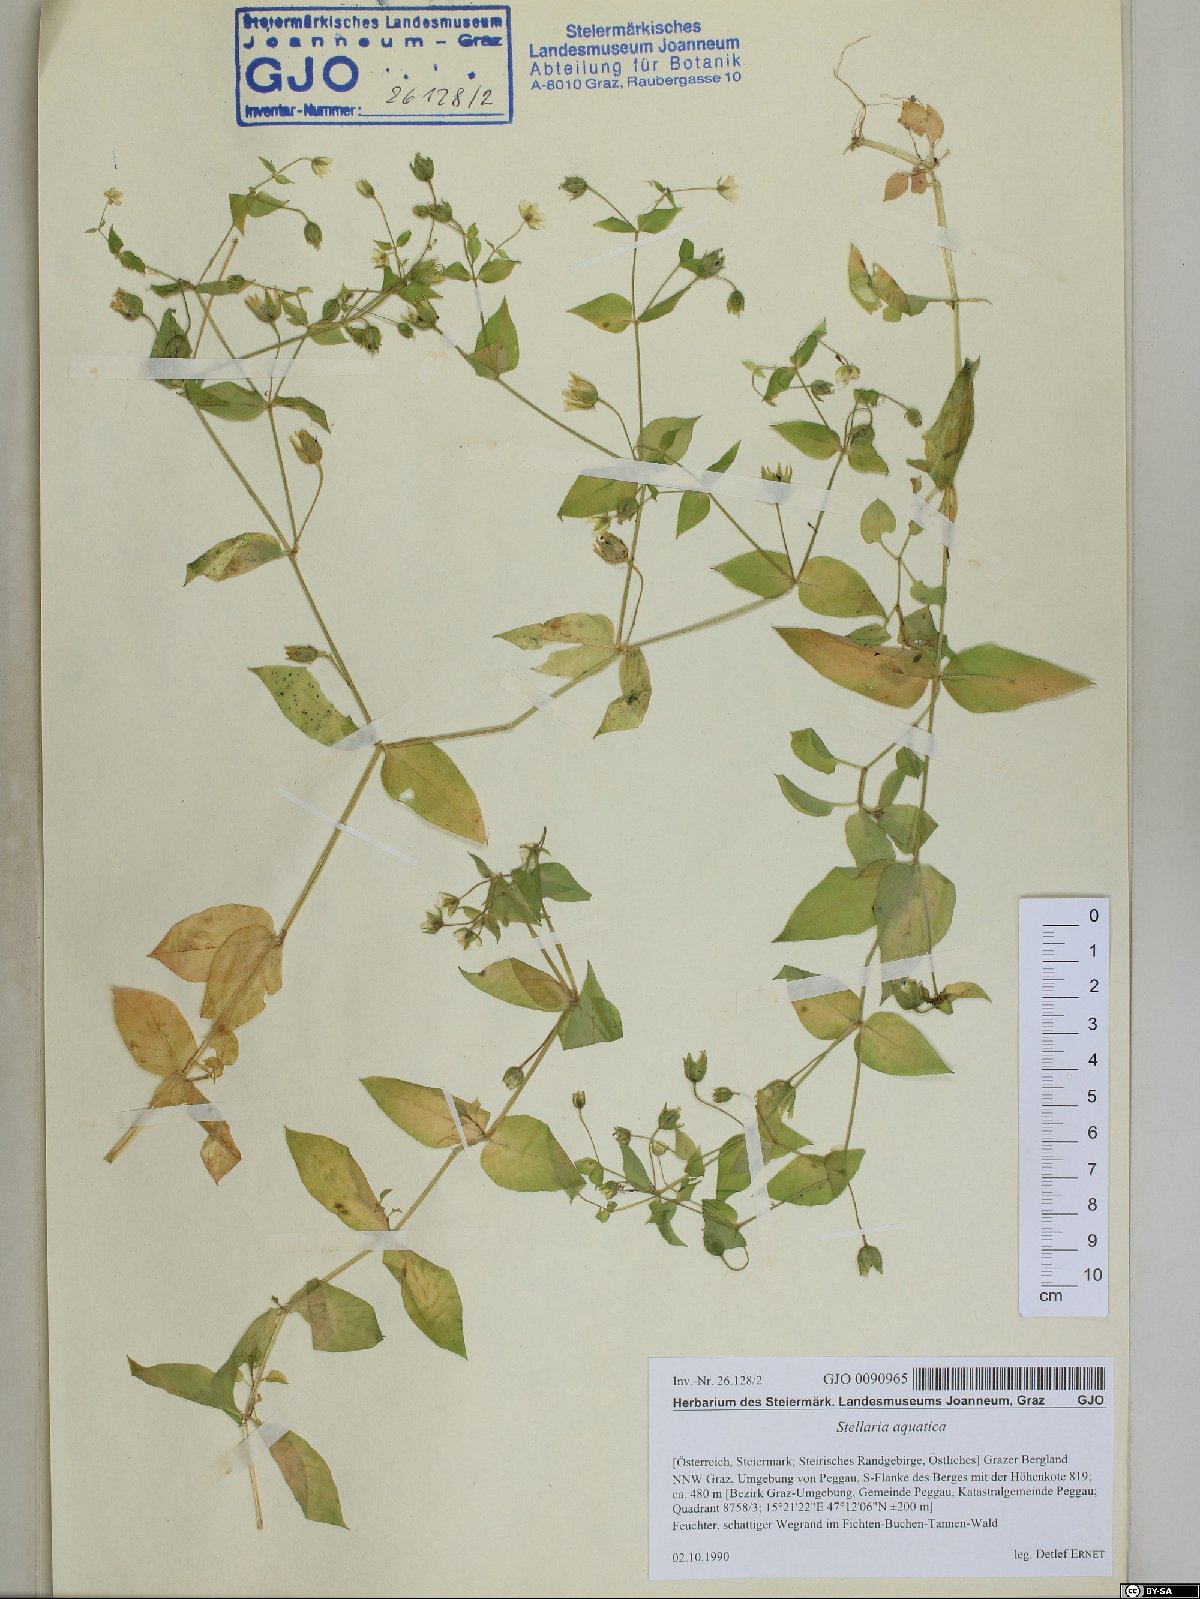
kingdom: Plantae
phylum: Tracheophyta
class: Magnoliopsida
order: Caryophyllales
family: Caryophyllaceae
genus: Stellaria
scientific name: Stellaria aquatica
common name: Water chickweed
